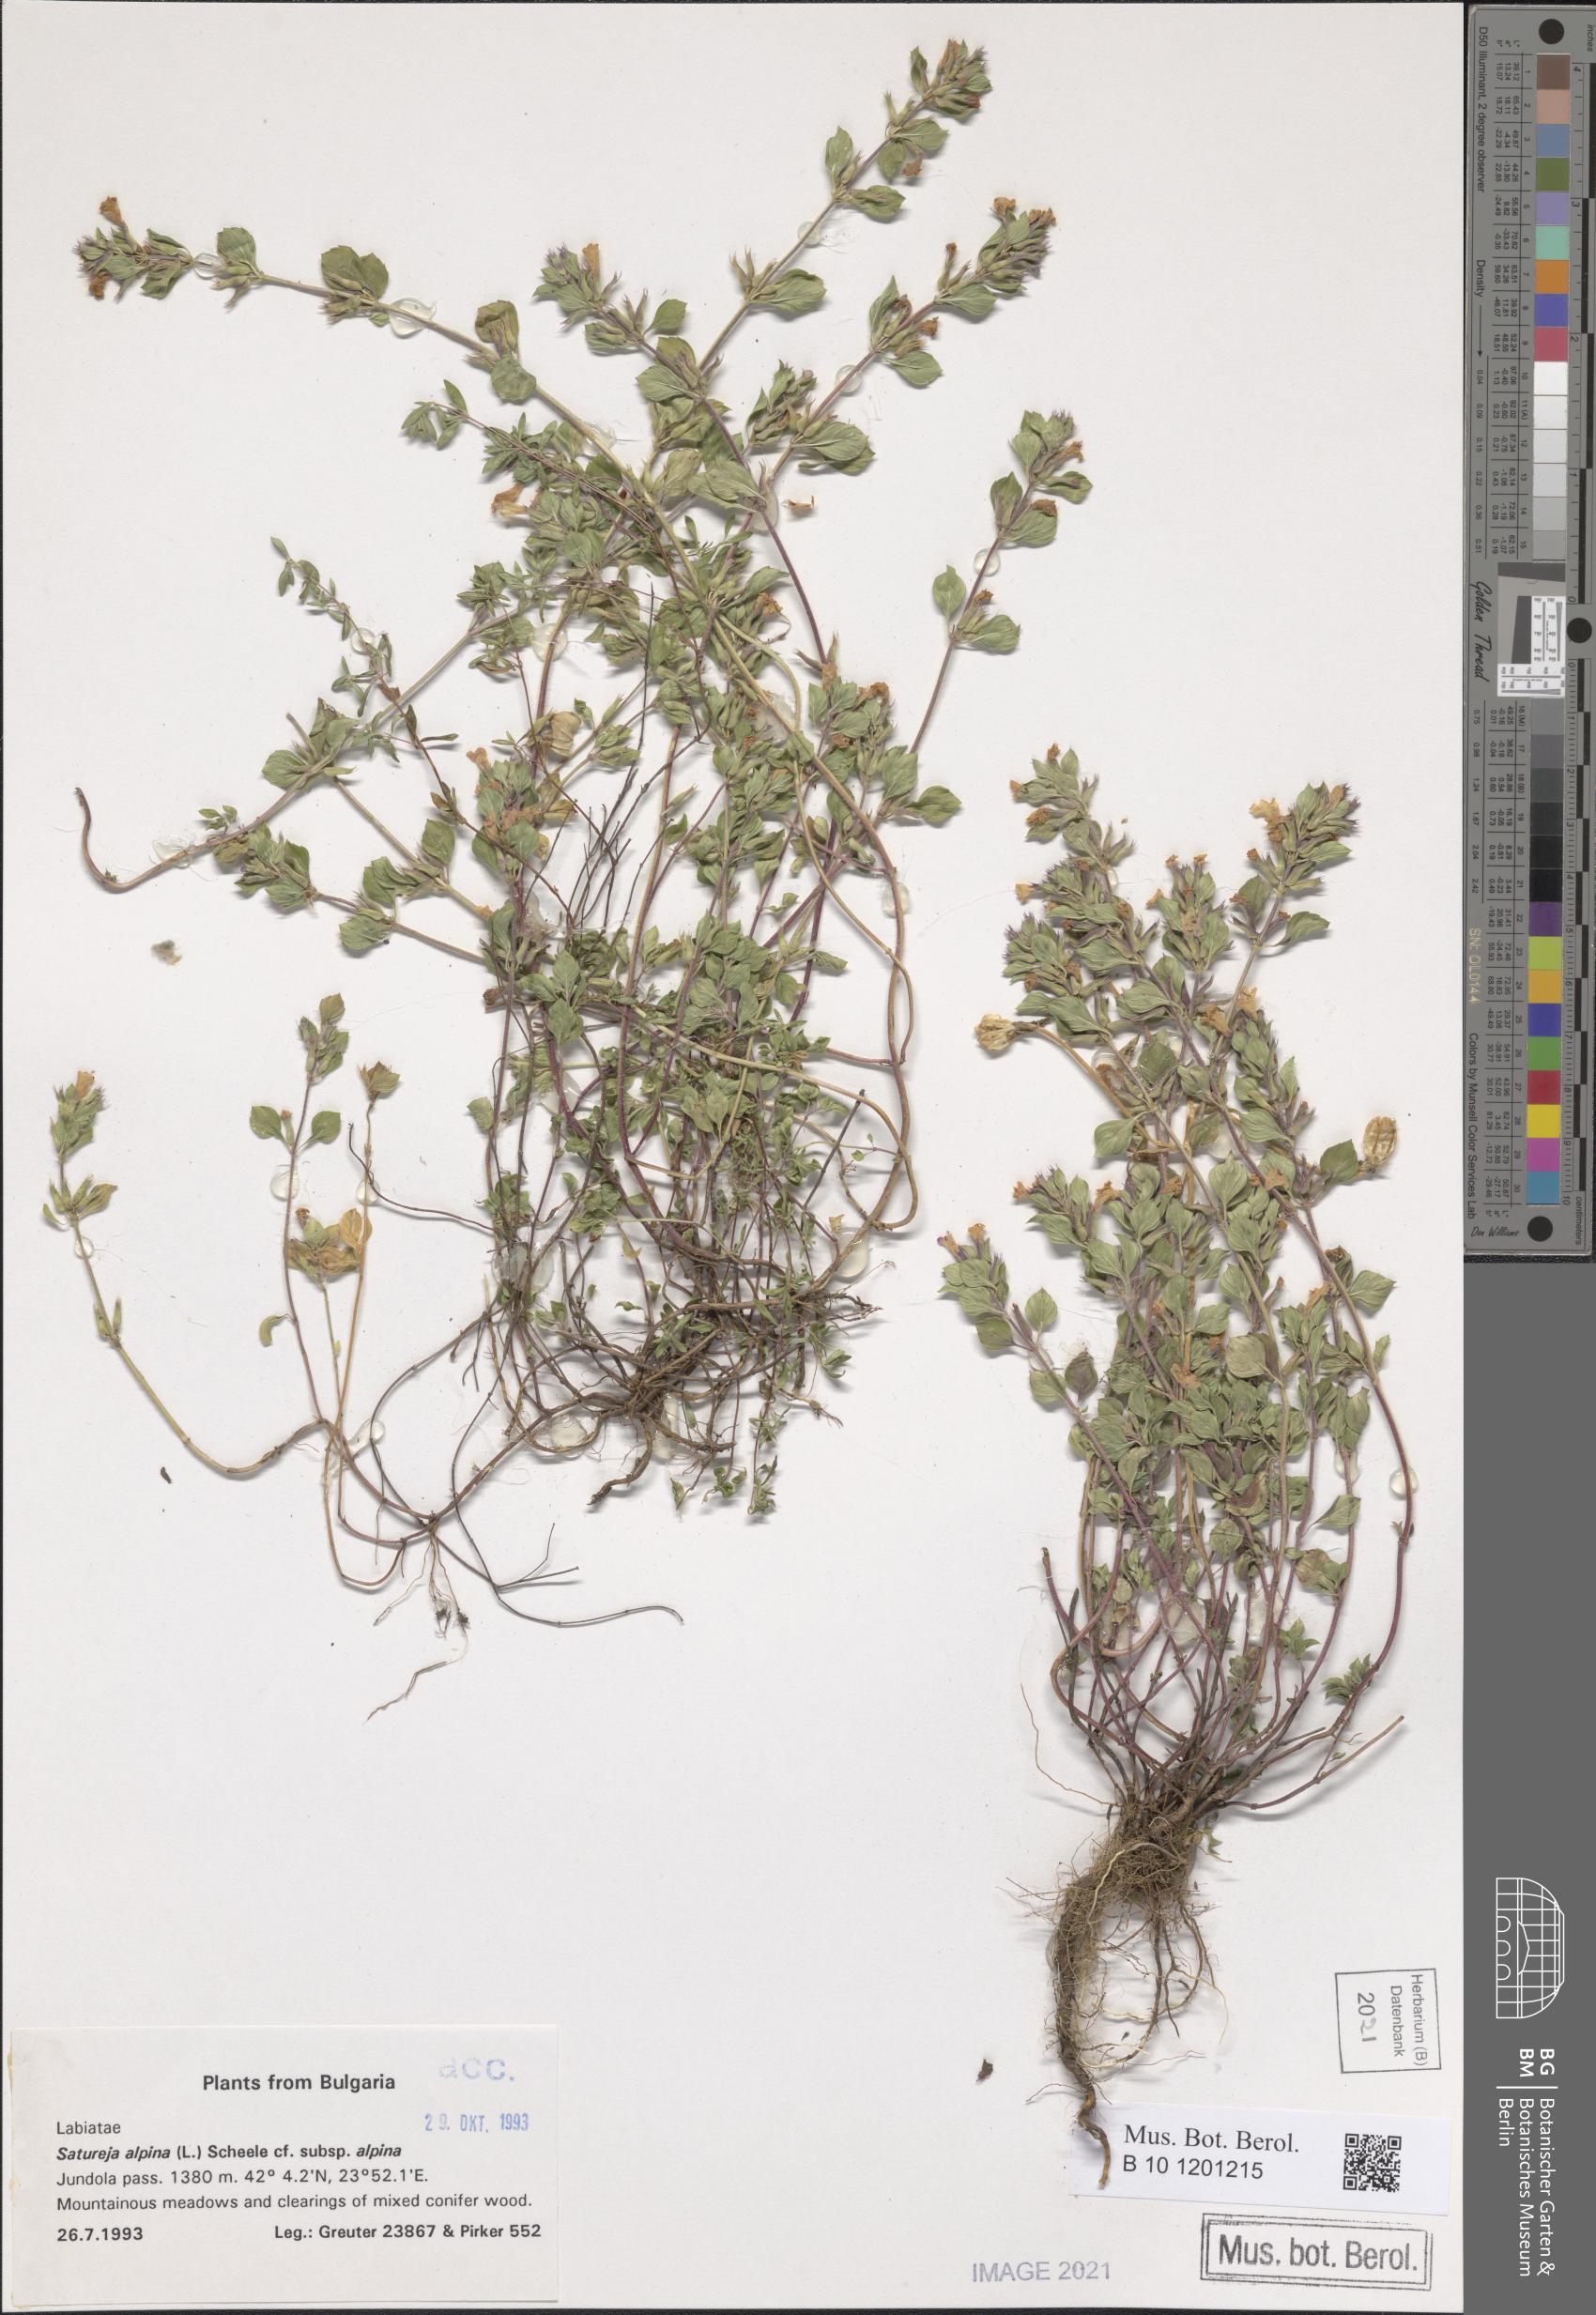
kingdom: Plantae
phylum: Tracheophyta
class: Magnoliopsida
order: Lamiales
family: Lamiaceae
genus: Clinopodium
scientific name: Clinopodium alpinum
